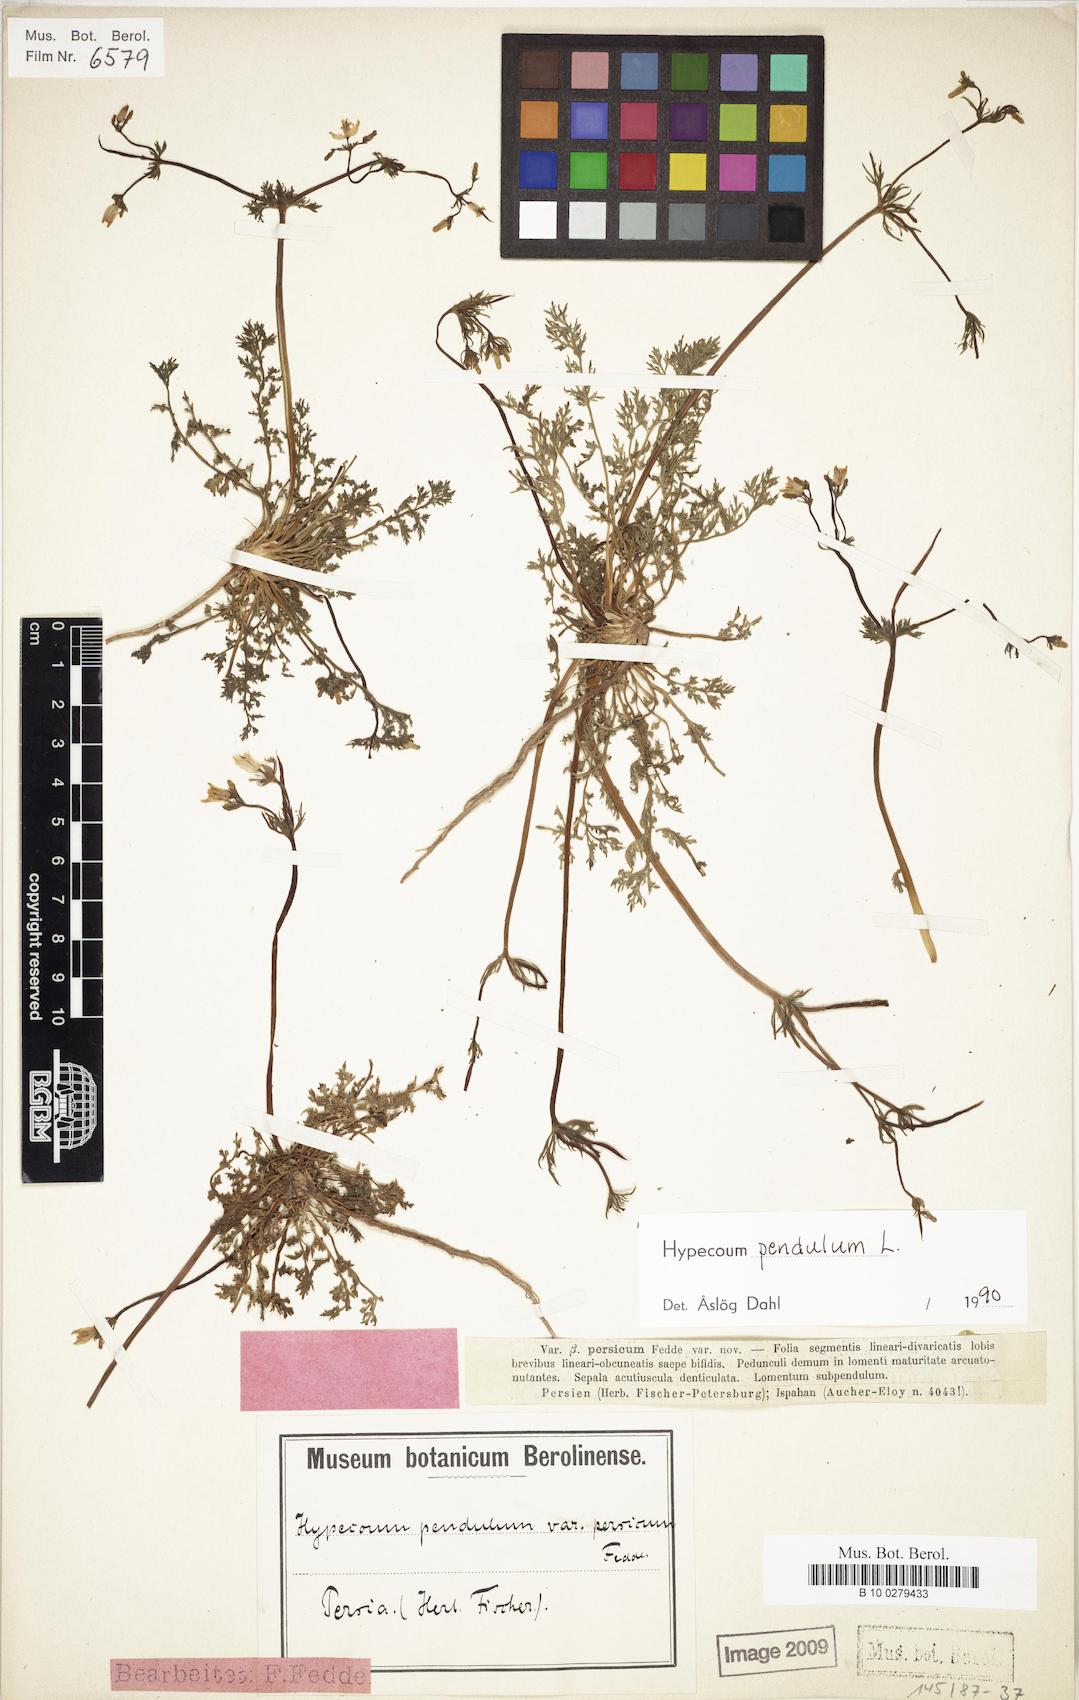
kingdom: Plantae
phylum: Tracheophyta
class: Magnoliopsida
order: Ranunculales
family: Papaveraceae
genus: Hypecoum
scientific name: Hypecoum pendulum
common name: Nodding hypecoum
